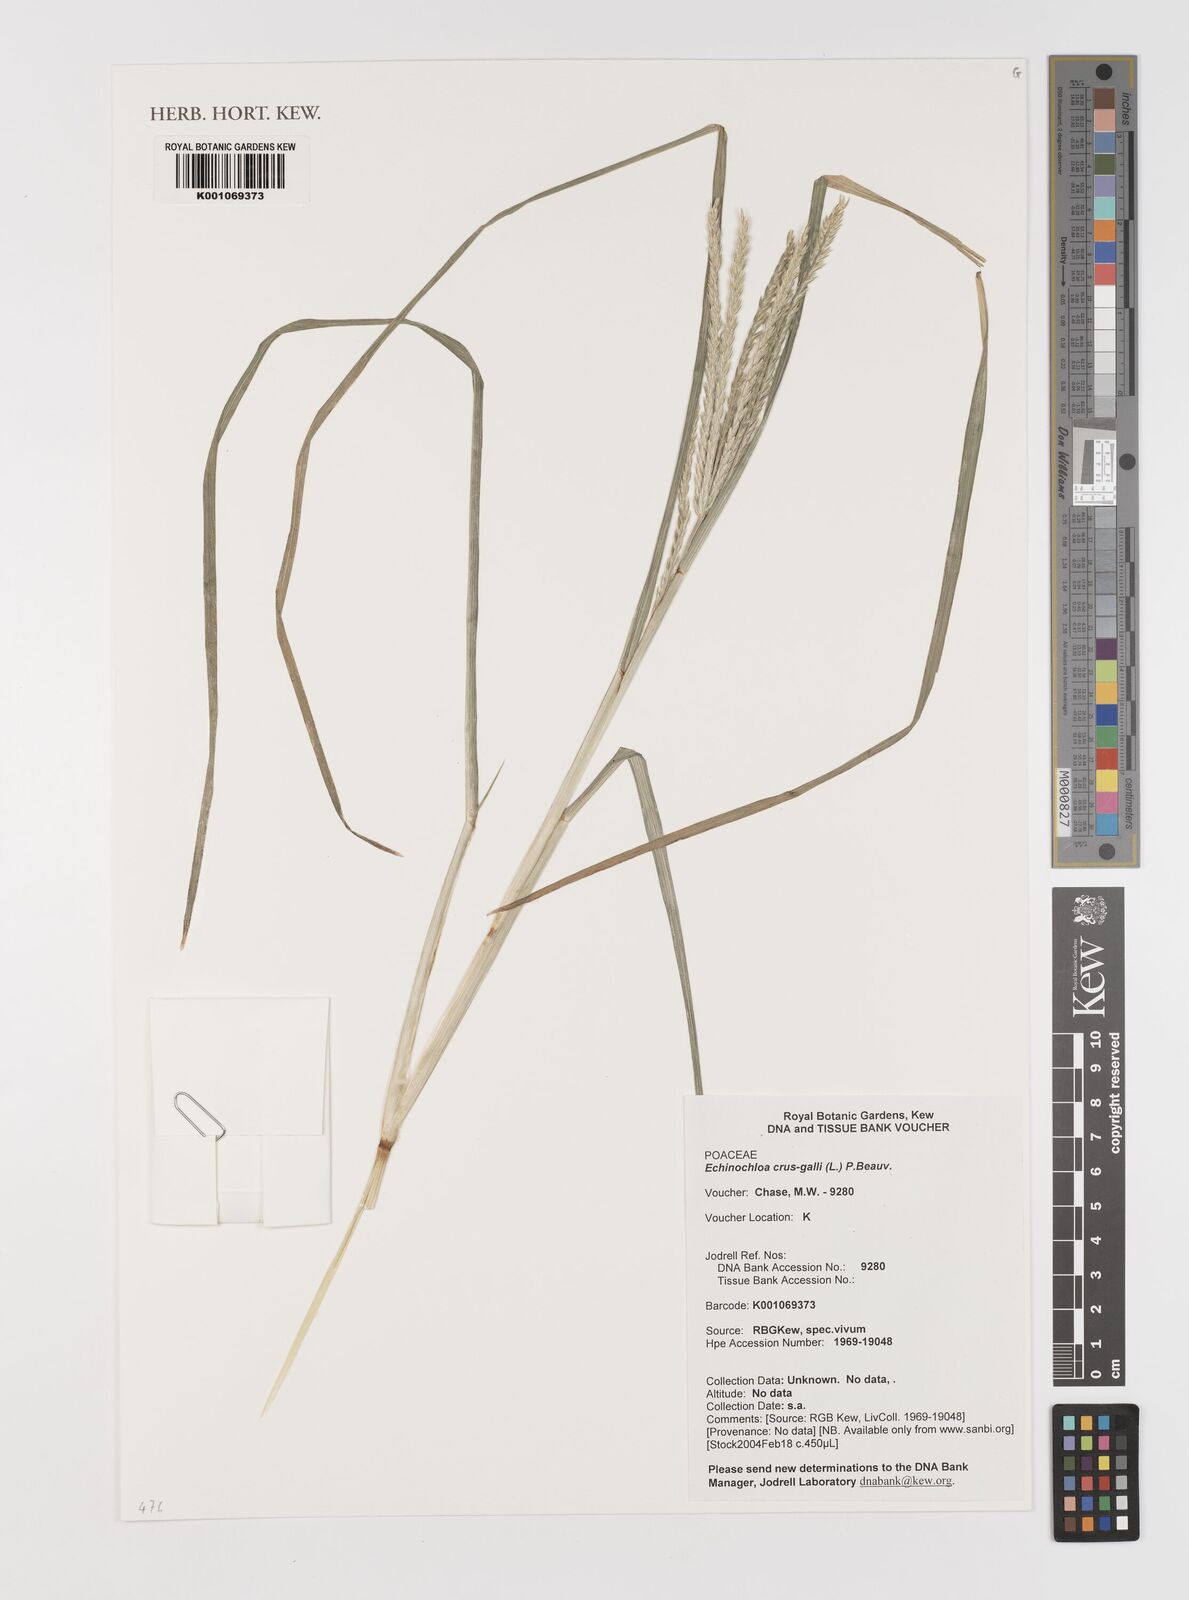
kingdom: Plantae
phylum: Tracheophyta
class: Liliopsida
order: Poales
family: Poaceae
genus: Echinochloa
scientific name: Echinochloa crus-galli
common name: Cockspur
